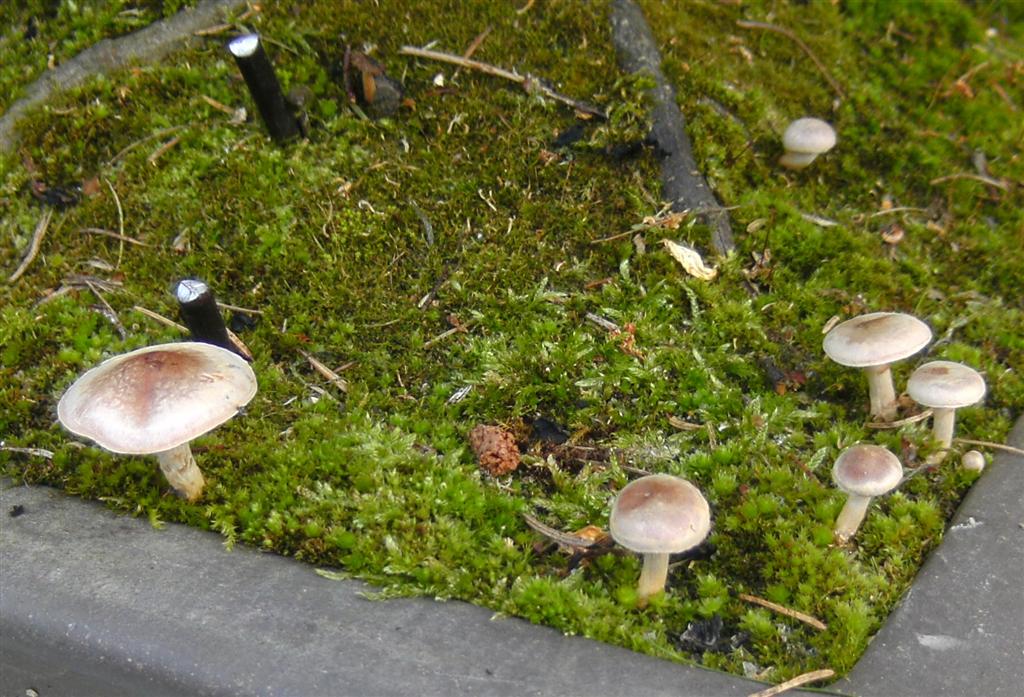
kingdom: Fungi
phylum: Basidiomycota
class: Agaricomycetes
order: Agaricales
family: Hymenogastraceae
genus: Hebeloma
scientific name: Hebeloma mesophaeum
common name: lerbrun tåreblad
